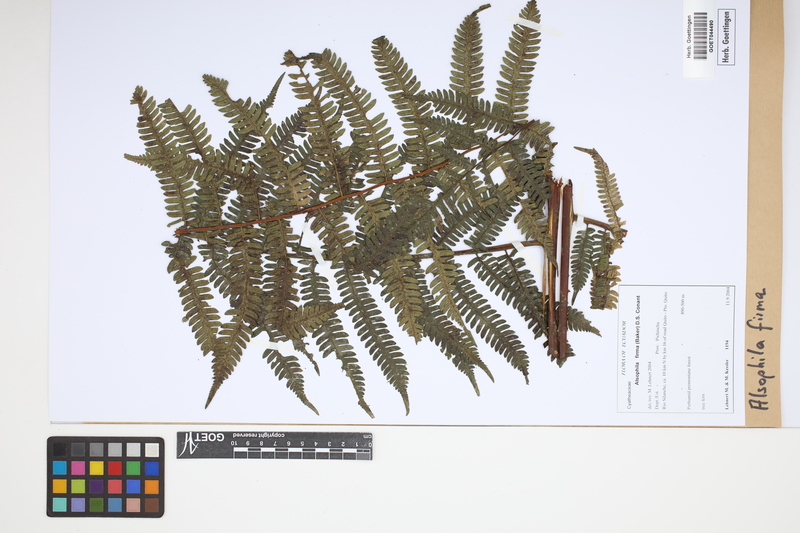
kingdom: Plantae
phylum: Tracheophyta
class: Polypodiopsida
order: Cyatheales
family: Cyatheaceae
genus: Alsophila
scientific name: Alsophila firma
